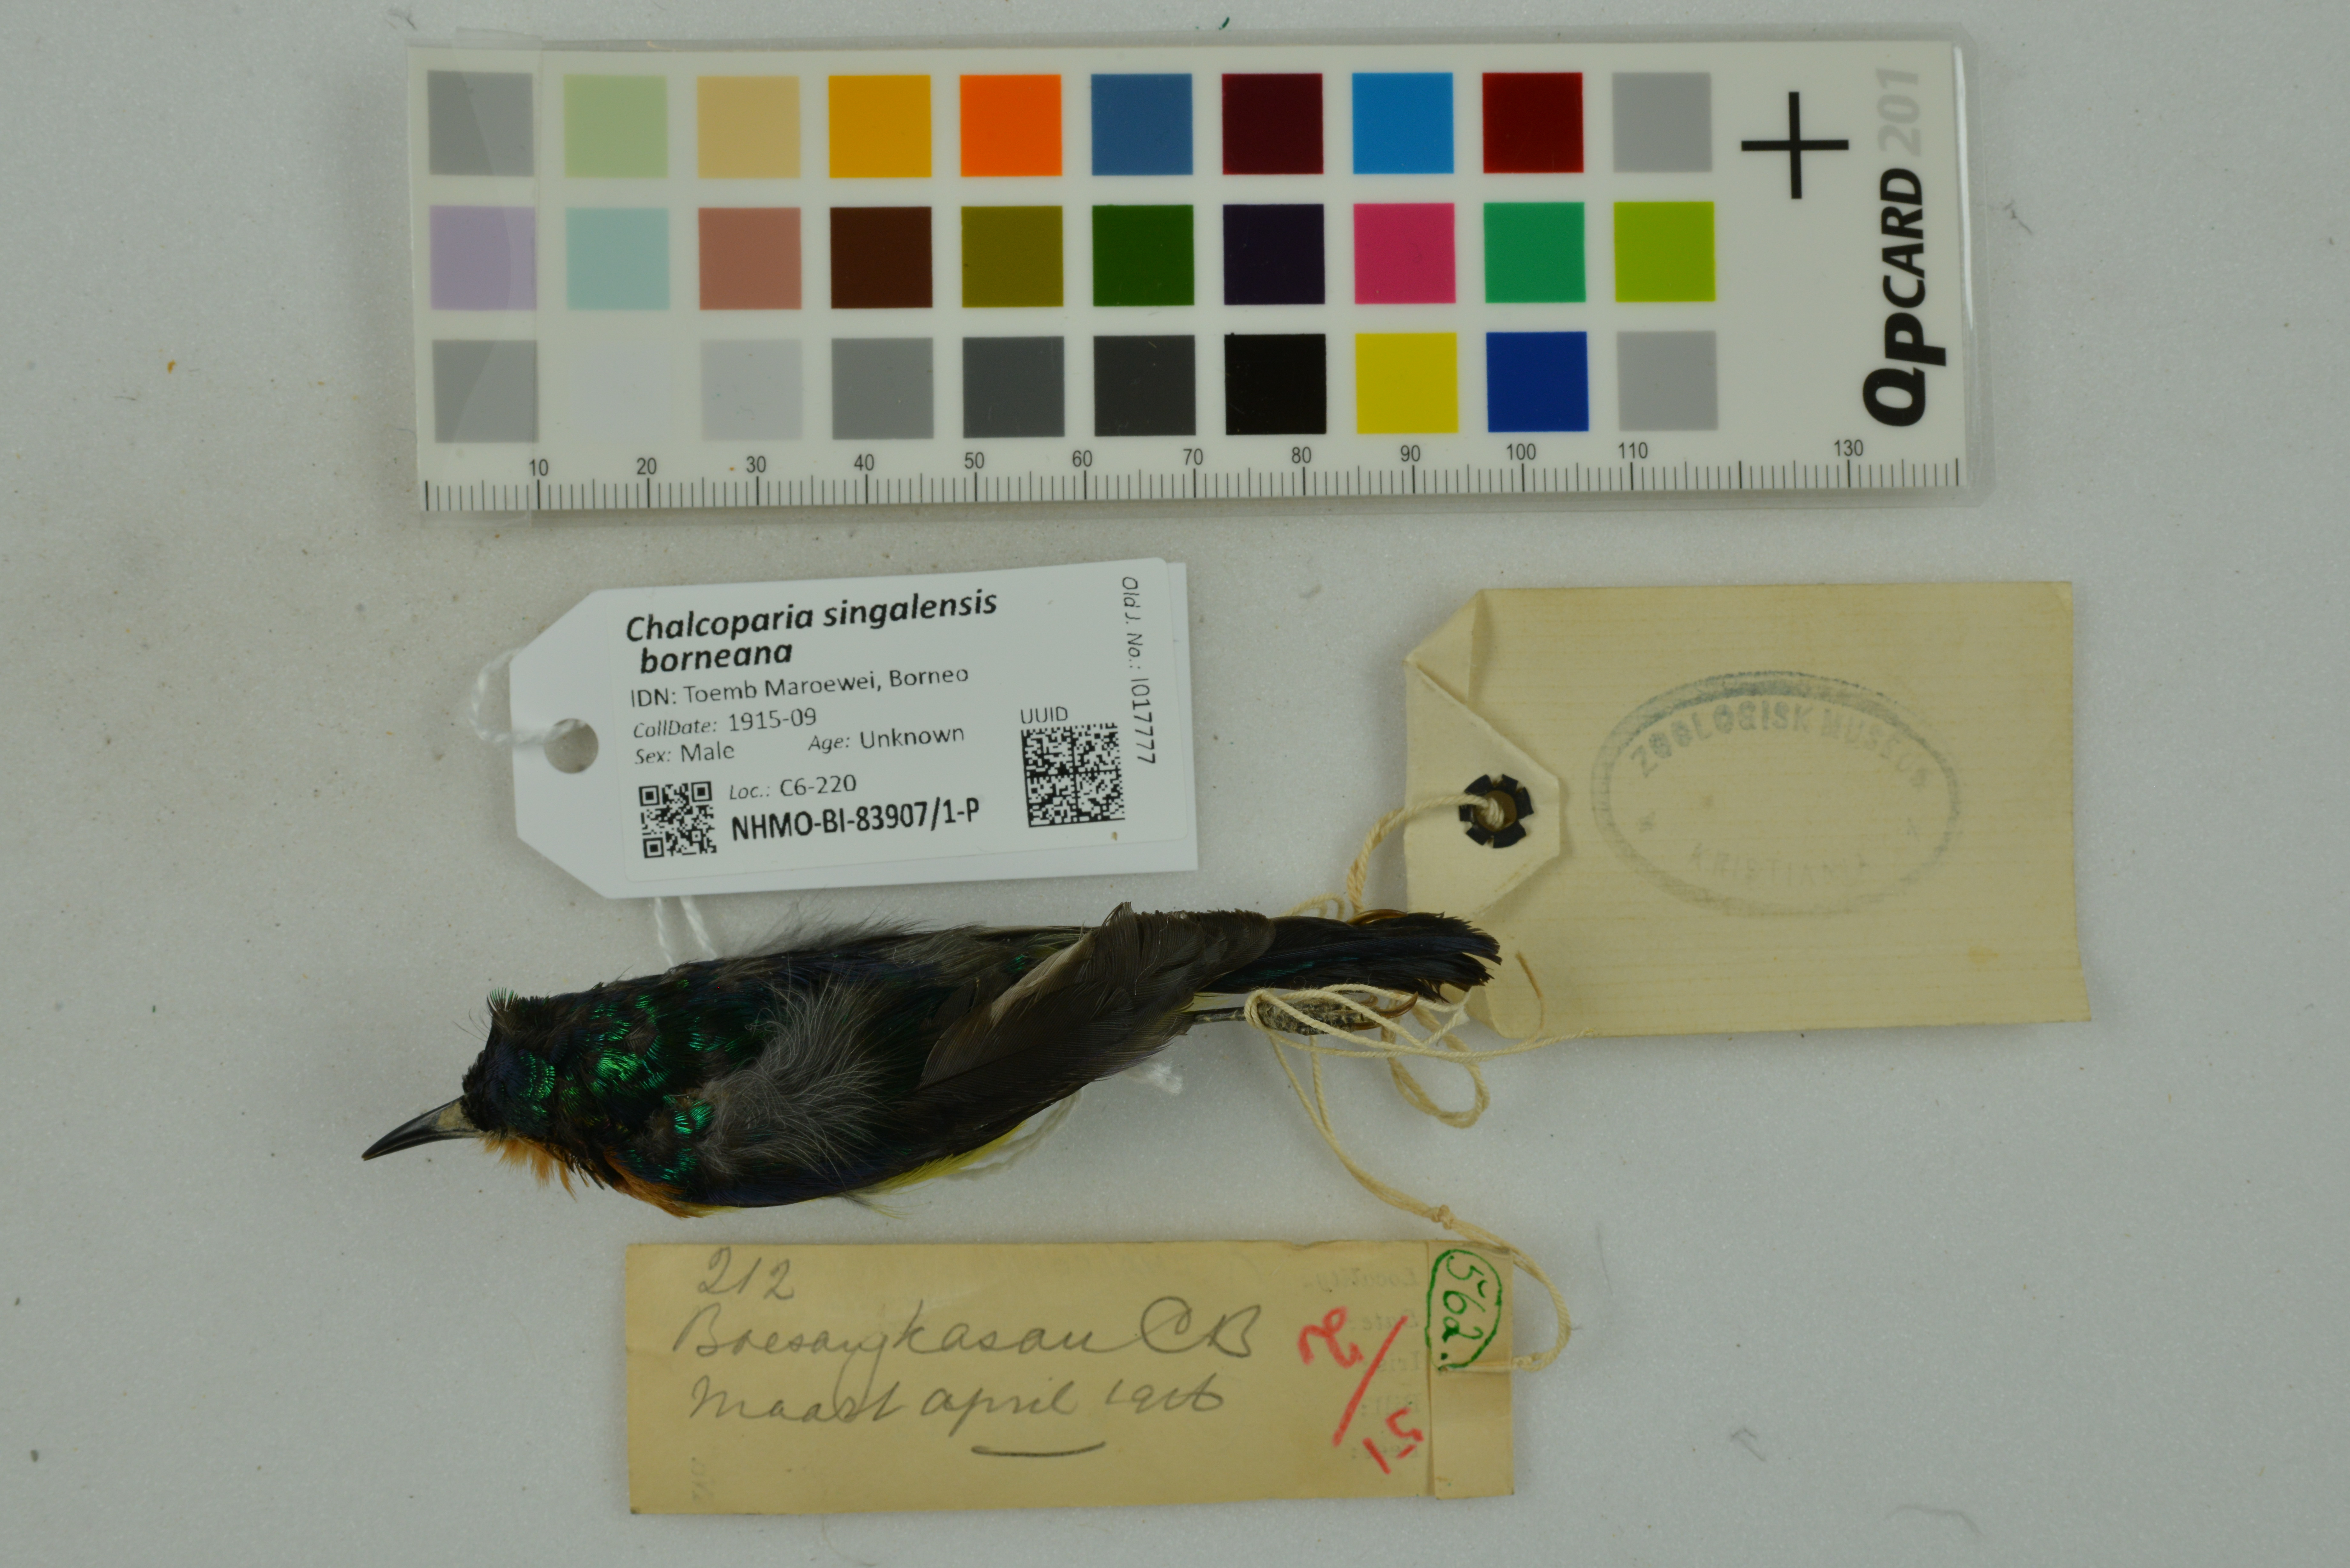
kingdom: Animalia
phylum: Chordata
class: Aves
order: Passeriformes
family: Nectariniidae
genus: Chalcoparia
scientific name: Chalcoparia singalensis
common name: Ruby-cheeked sunbird
